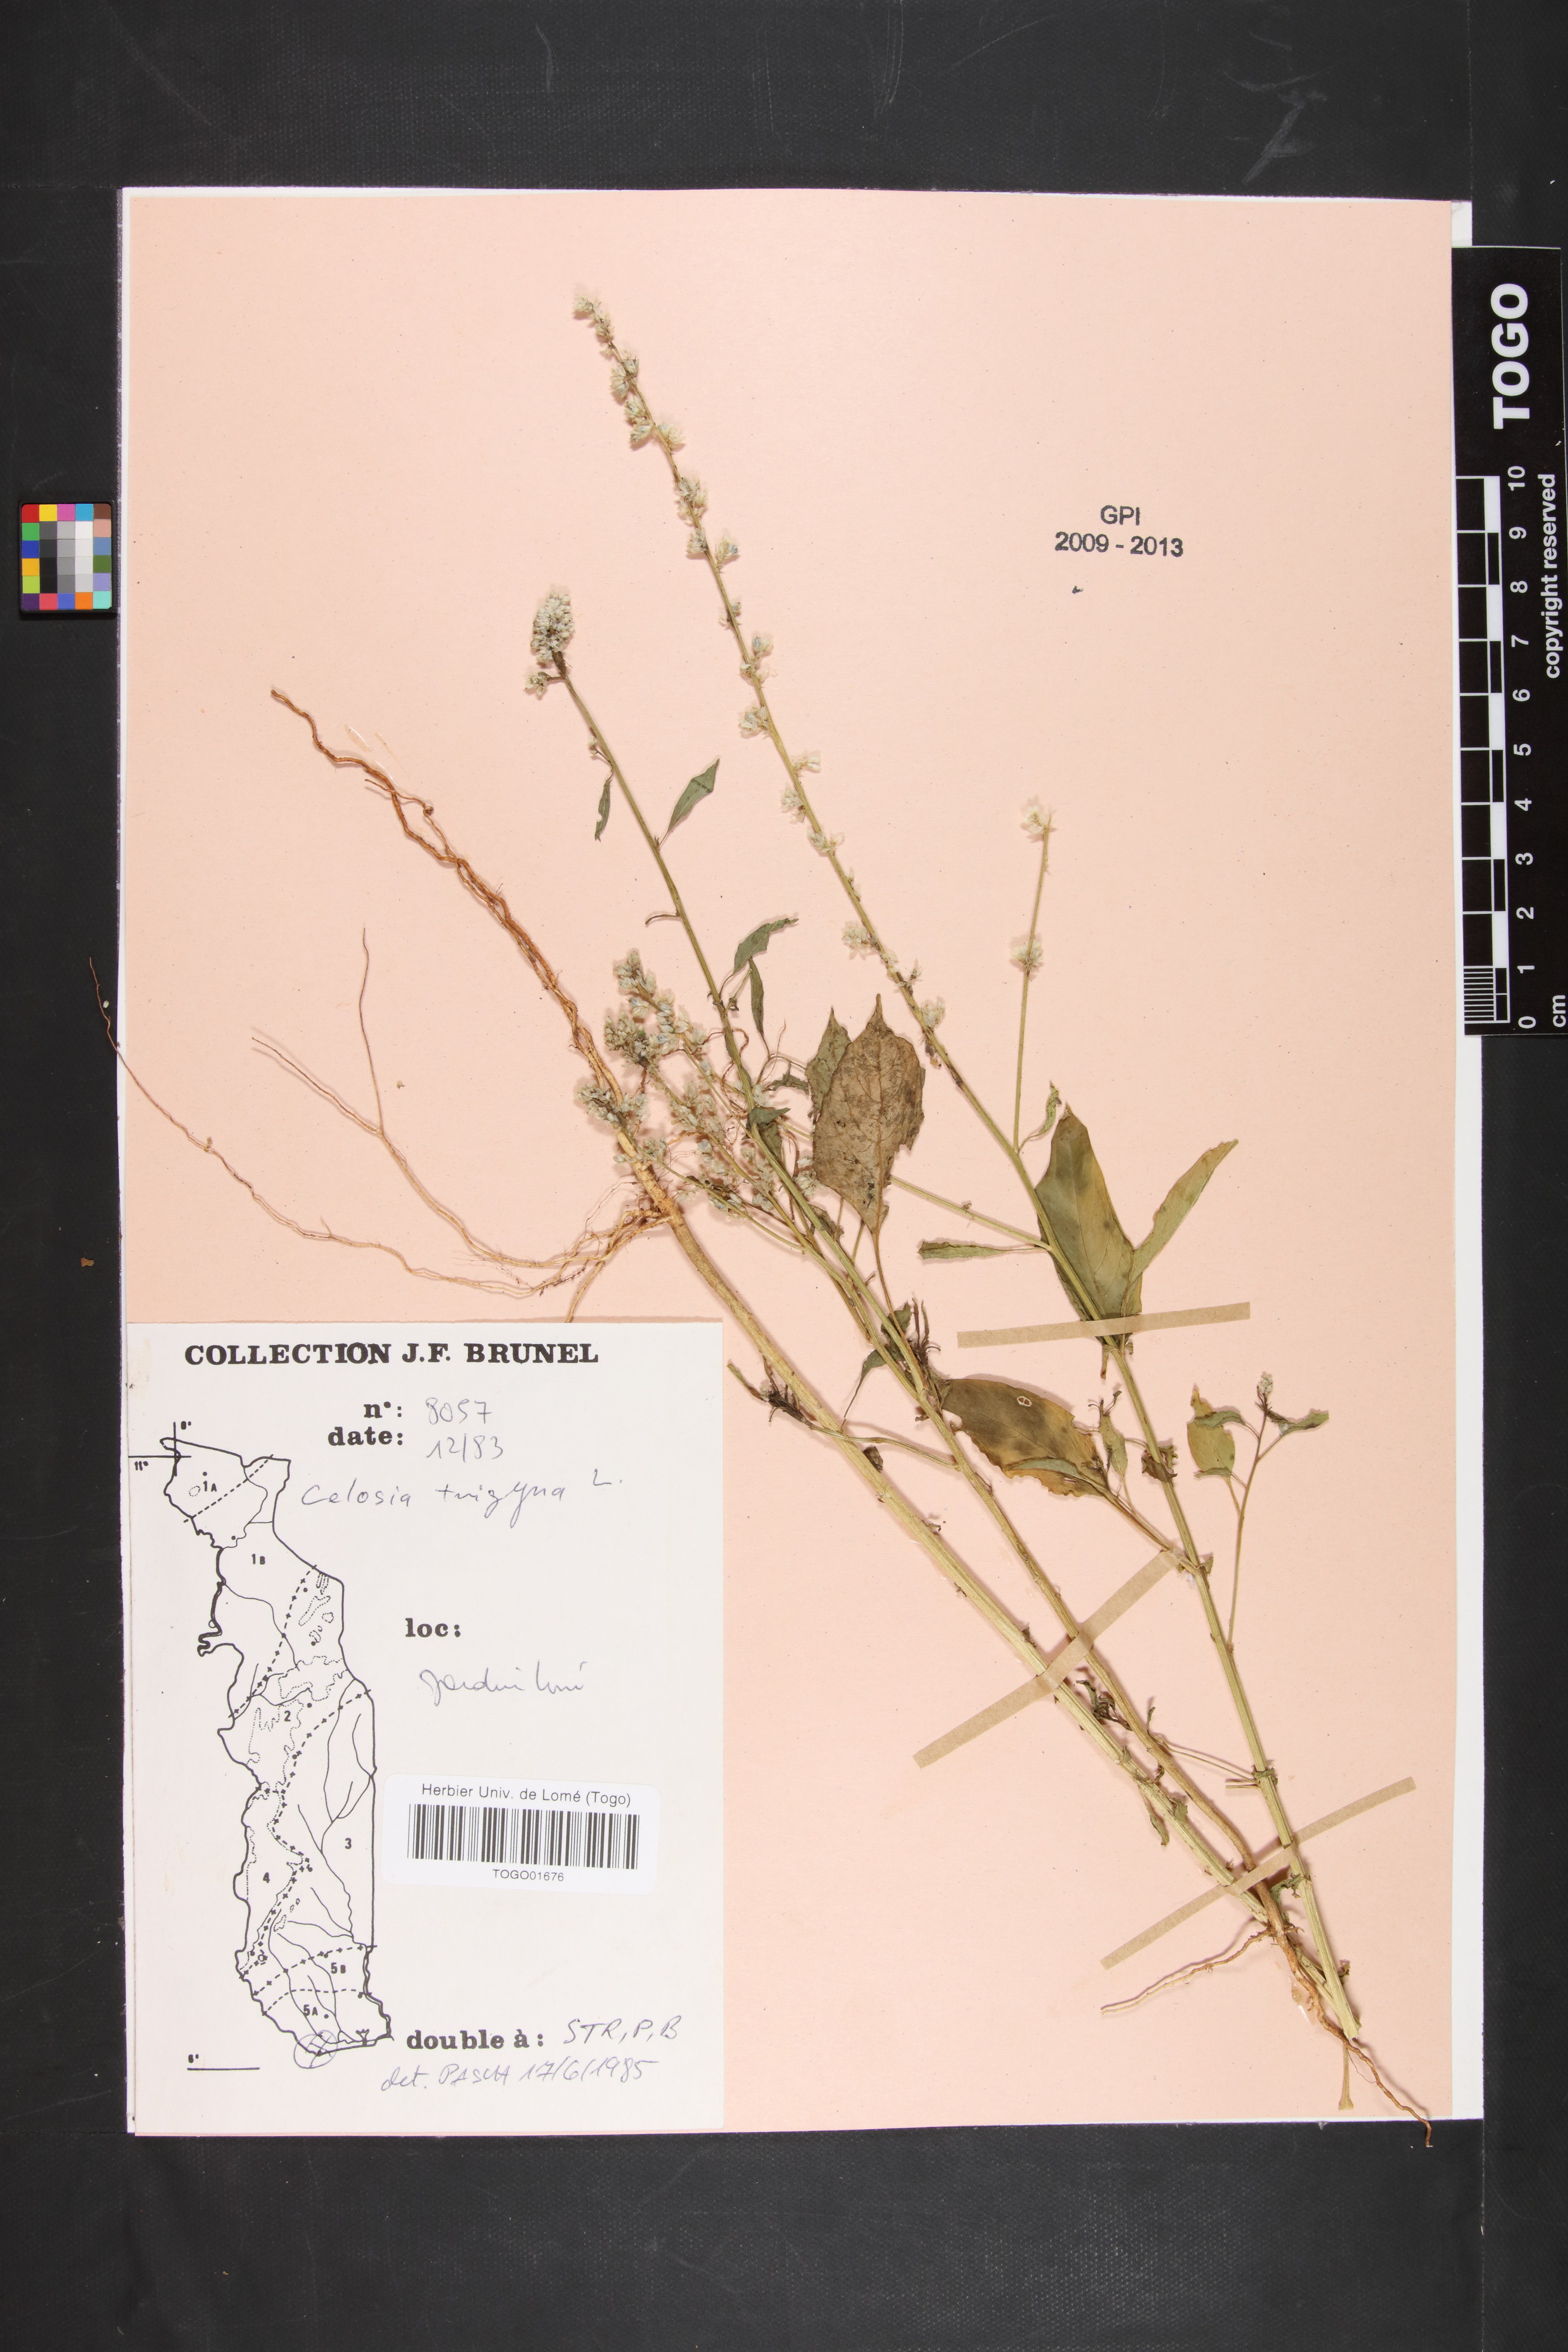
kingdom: Plantae
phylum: Tracheophyta
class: Magnoliopsida
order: Caryophyllales
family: Amaranthaceae
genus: Celosia
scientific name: Celosia trigyna
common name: Woolflower
